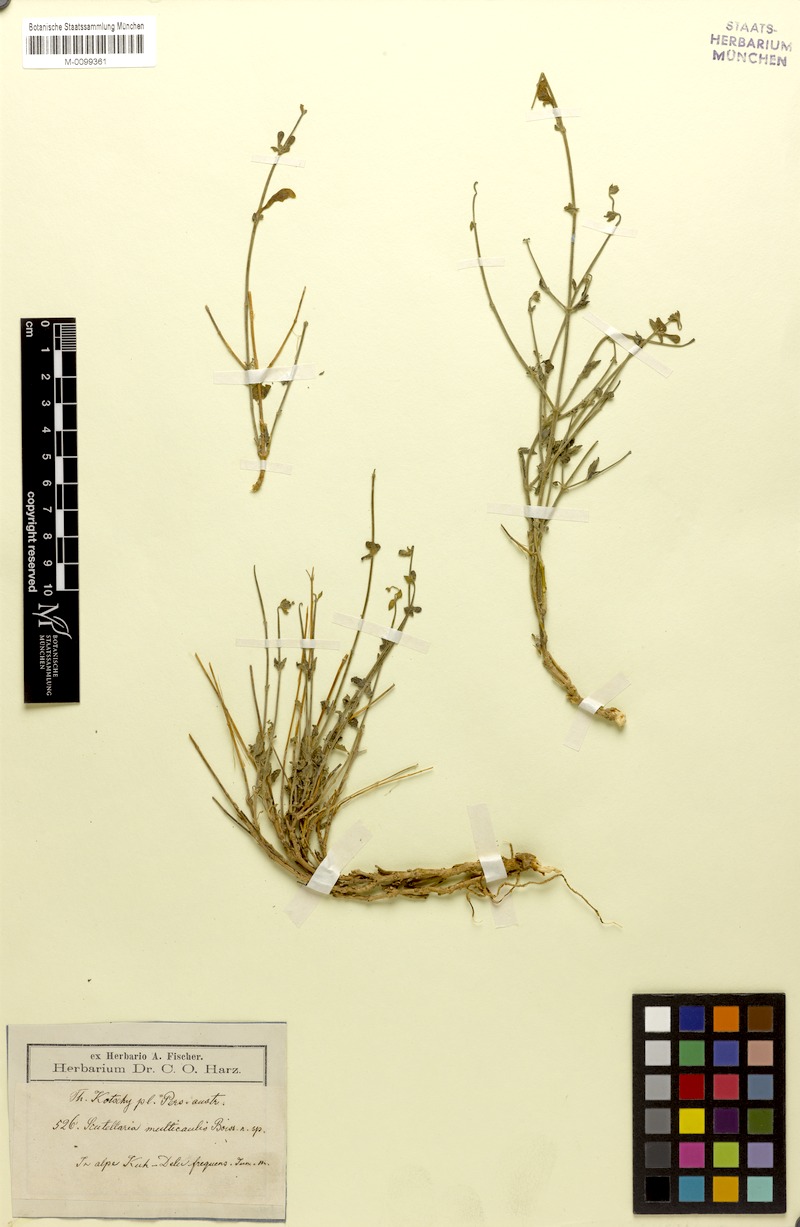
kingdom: Plantae
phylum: Tracheophyta
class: Magnoliopsida
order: Lamiales
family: Lamiaceae
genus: Scutellaria
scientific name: Scutellaria multicaulis
